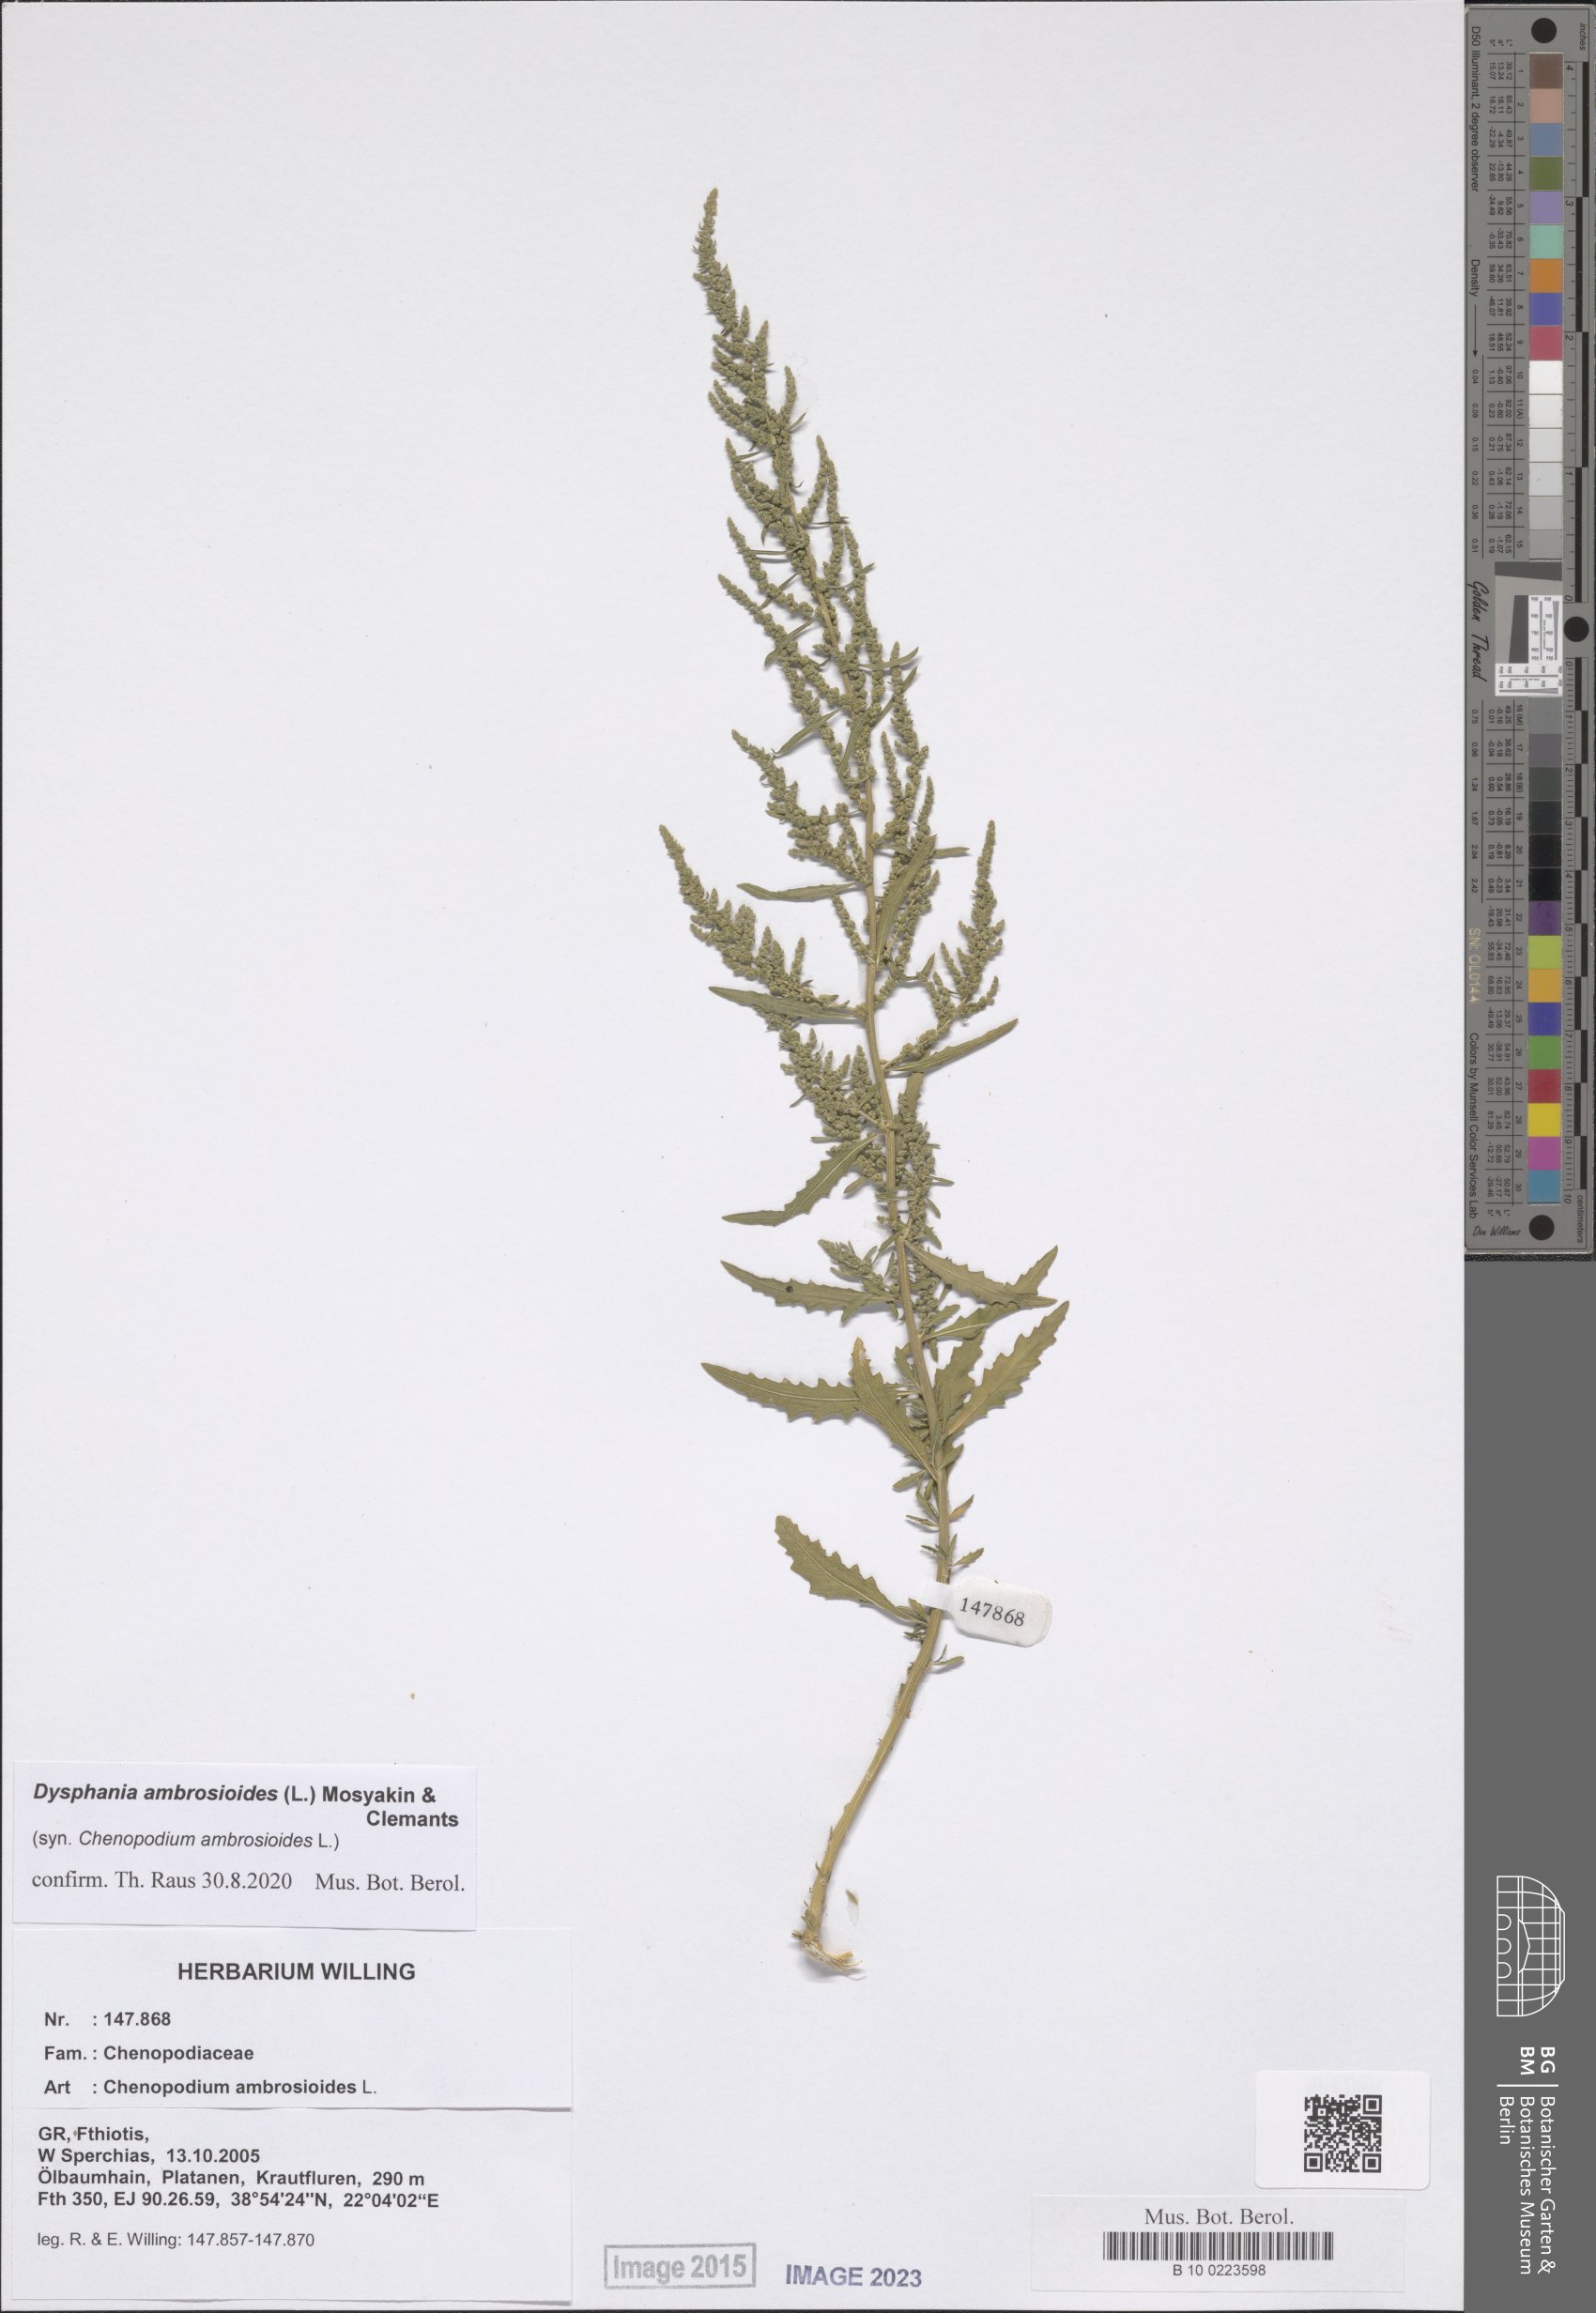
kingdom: Plantae
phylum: Tracheophyta
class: Magnoliopsida
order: Caryophyllales
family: Amaranthaceae
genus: Dysphania
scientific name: Dysphania ambrosioides
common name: Wormseed
